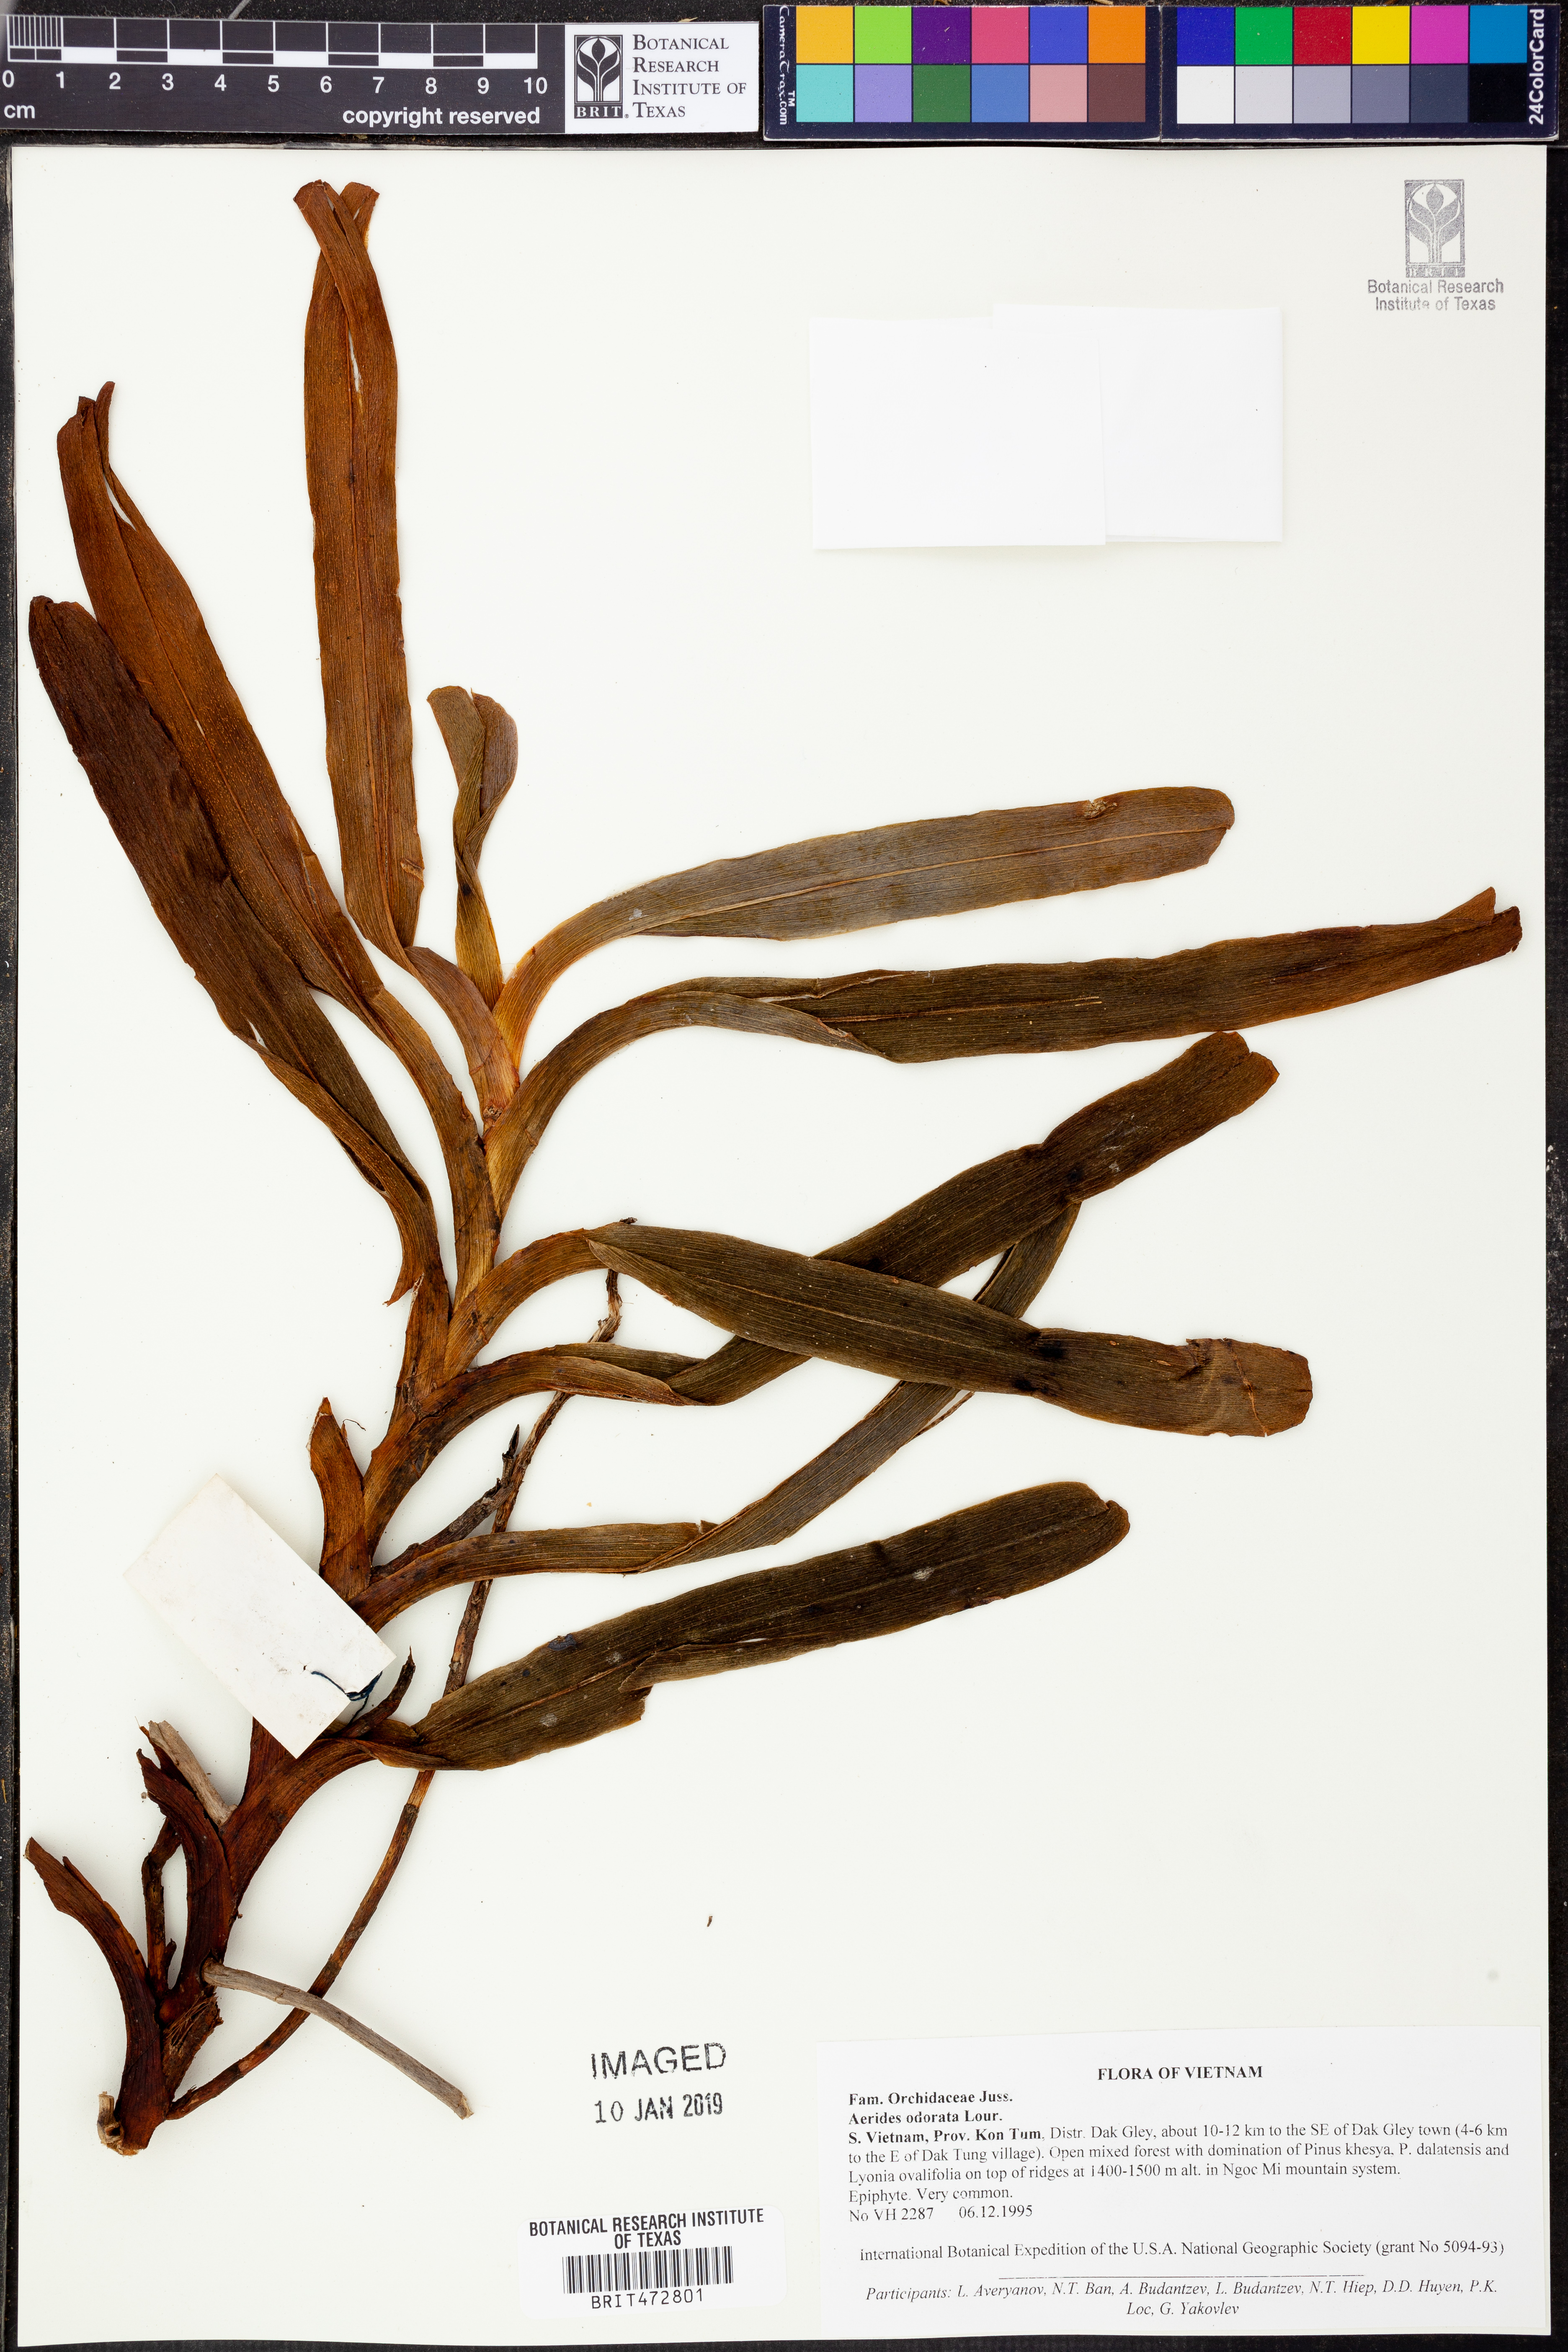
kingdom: Plantae
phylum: Tracheophyta
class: Liliopsida
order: Asparagales
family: Orchidaceae
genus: Aerides
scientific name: Aerides odorata
